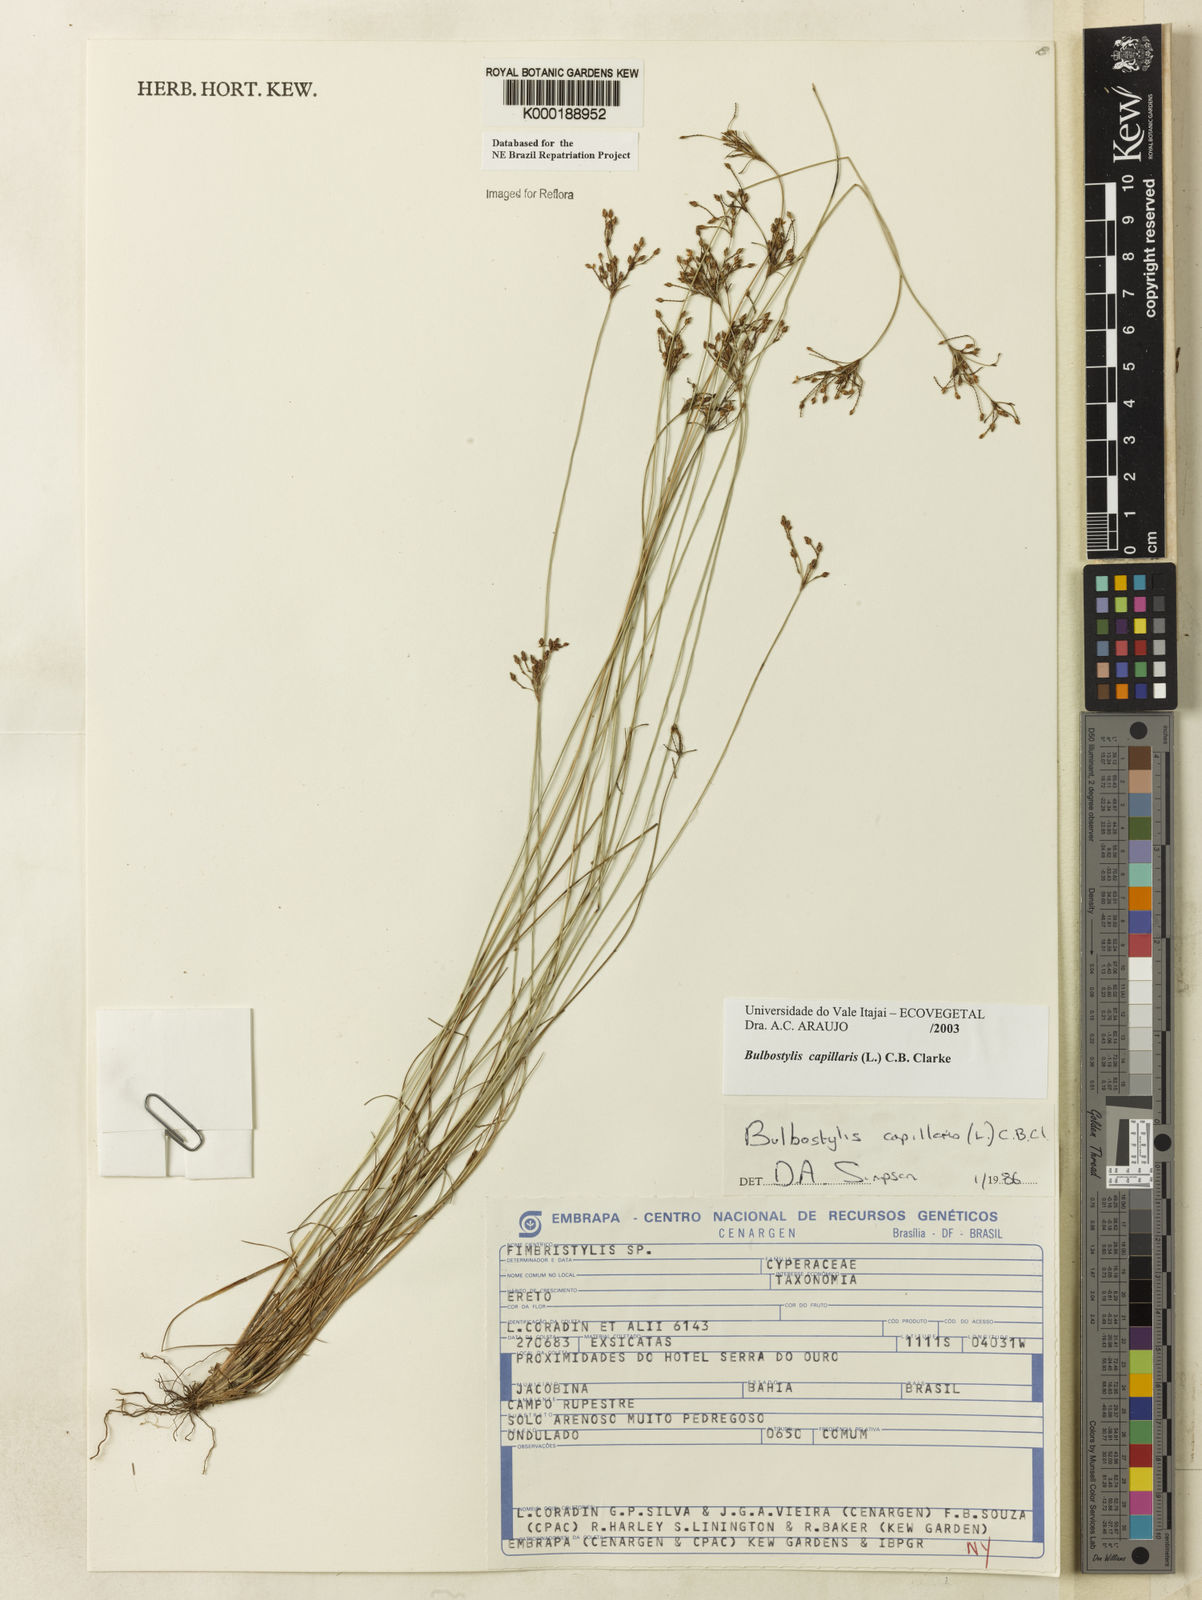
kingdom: Plantae
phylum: Tracheophyta
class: Liliopsida
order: Poales
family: Cyperaceae
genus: Bulbostylis
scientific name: Bulbostylis capillaris
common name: Densetuft hairsedge
